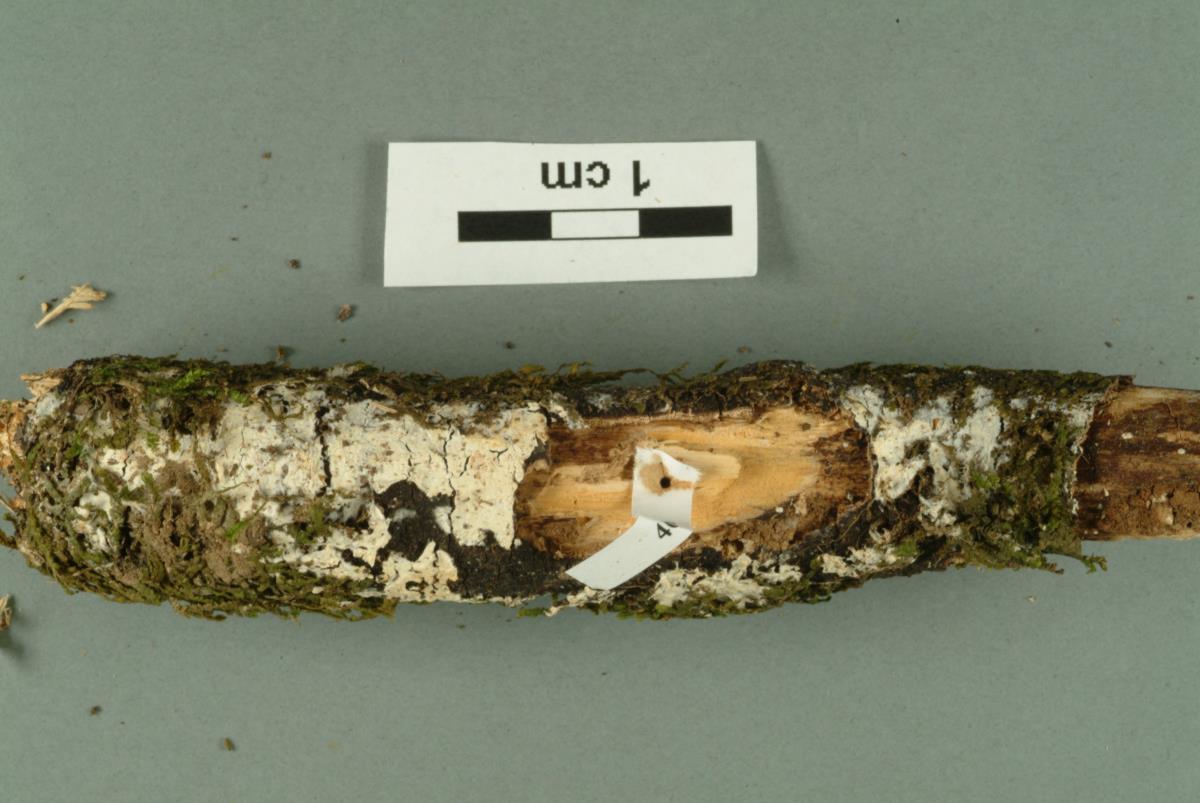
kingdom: Fungi
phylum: Basidiomycota
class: Agaricomycetes
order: Corticiales
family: Corticiaceae
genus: Lyomyces
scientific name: Lyomyces sambuci
